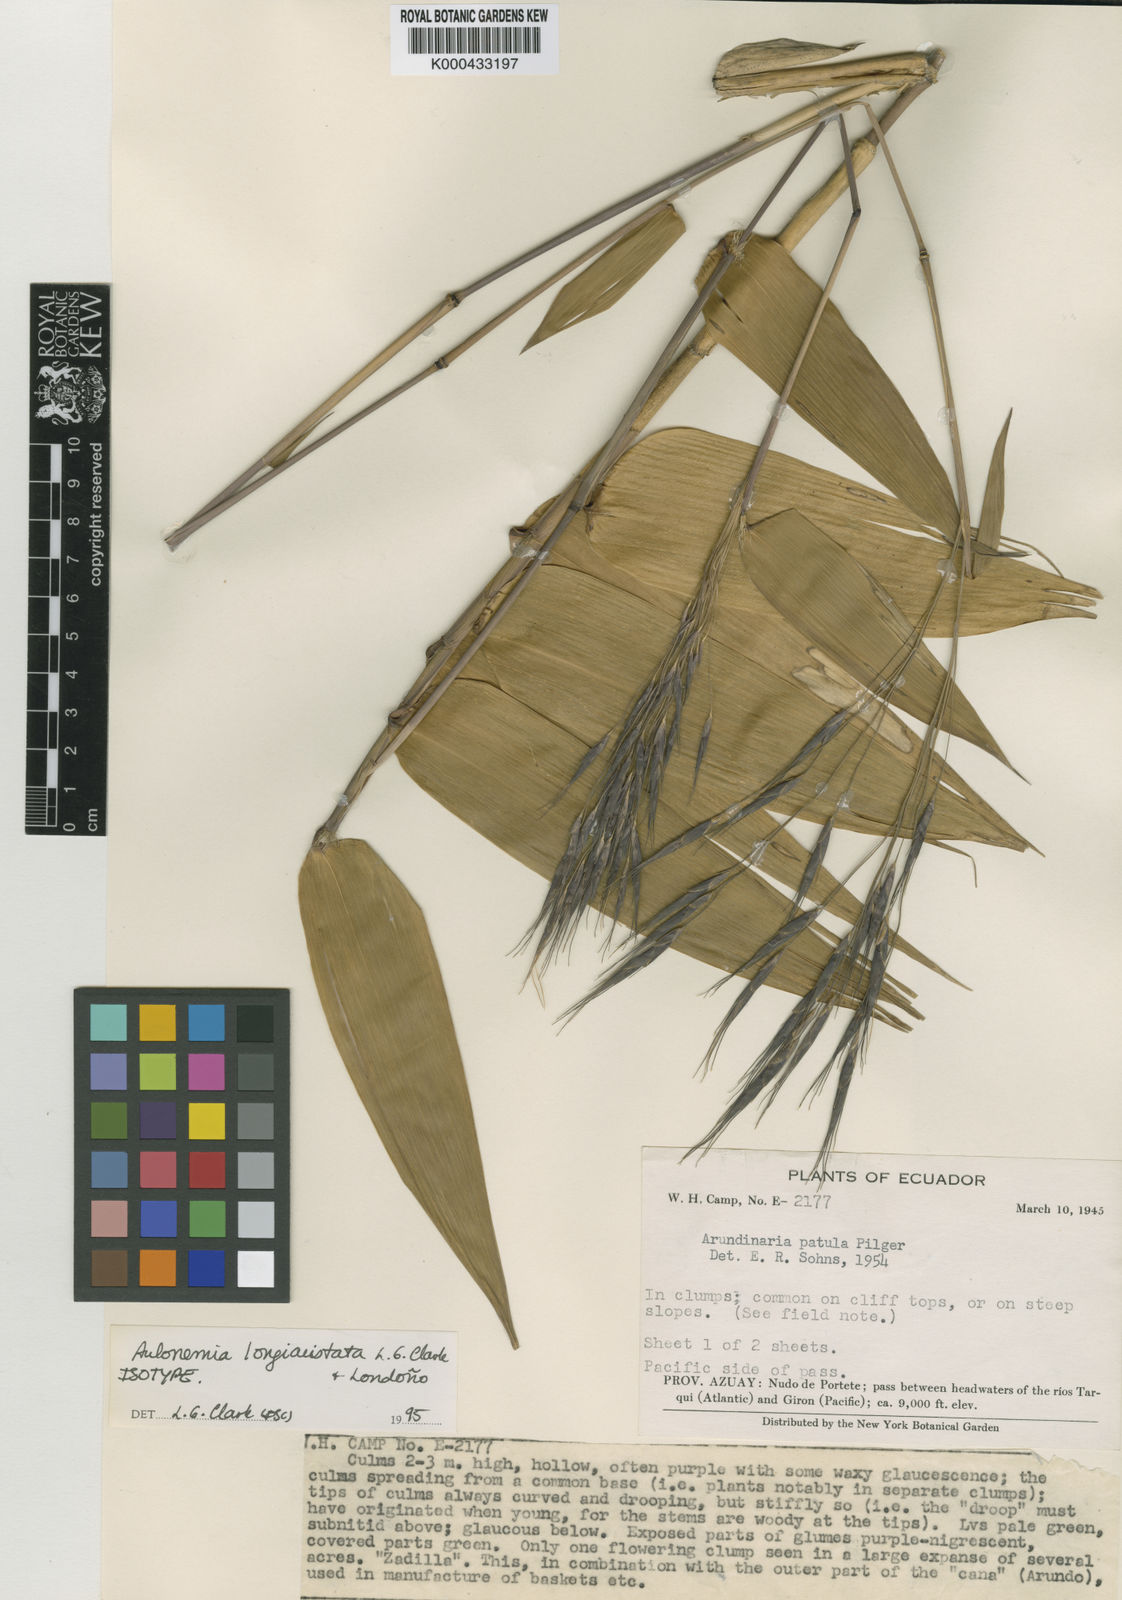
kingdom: Plantae
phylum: Tracheophyta
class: Liliopsida
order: Poales
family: Poaceae
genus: Aulonemia
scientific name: Aulonemia
